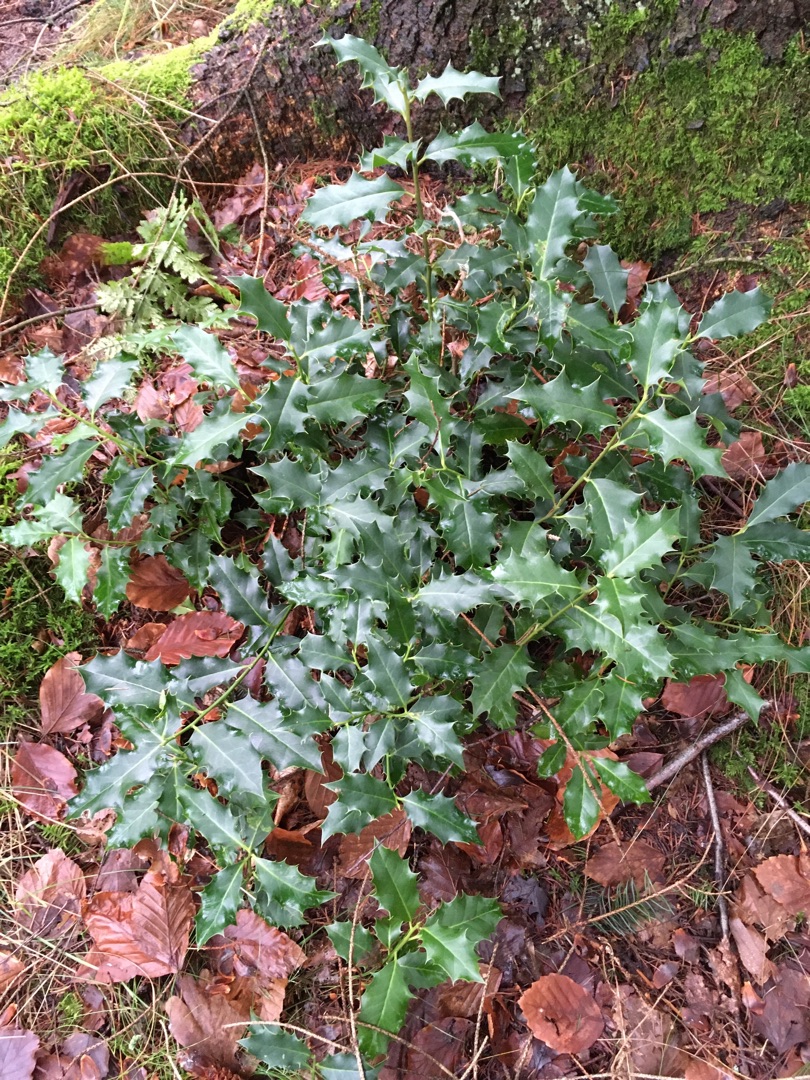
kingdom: Plantae
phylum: Tracheophyta
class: Magnoliopsida
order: Aquifoliales
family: Aquifoliaceae
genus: Ilex
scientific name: Ilex aquifolium
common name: Kristtorn
